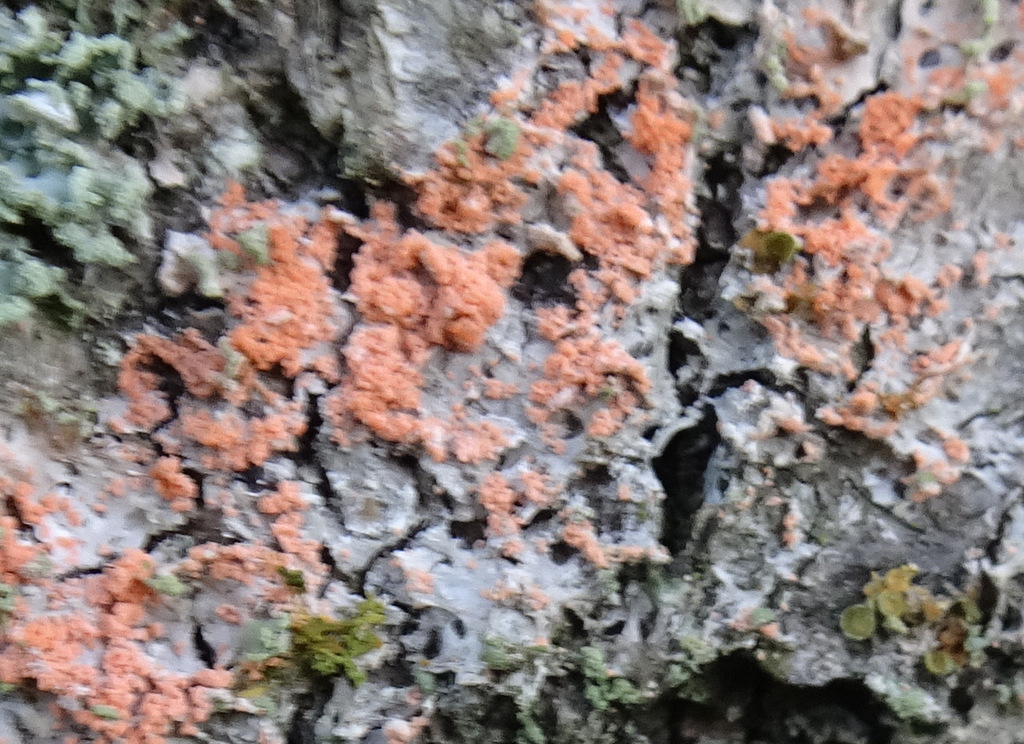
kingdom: Fungi
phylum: Basidiomycota
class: Agaricomycetes
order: Corticiales
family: Corticiaceae
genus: Erythricium
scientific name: Erythricium aurantiacum
